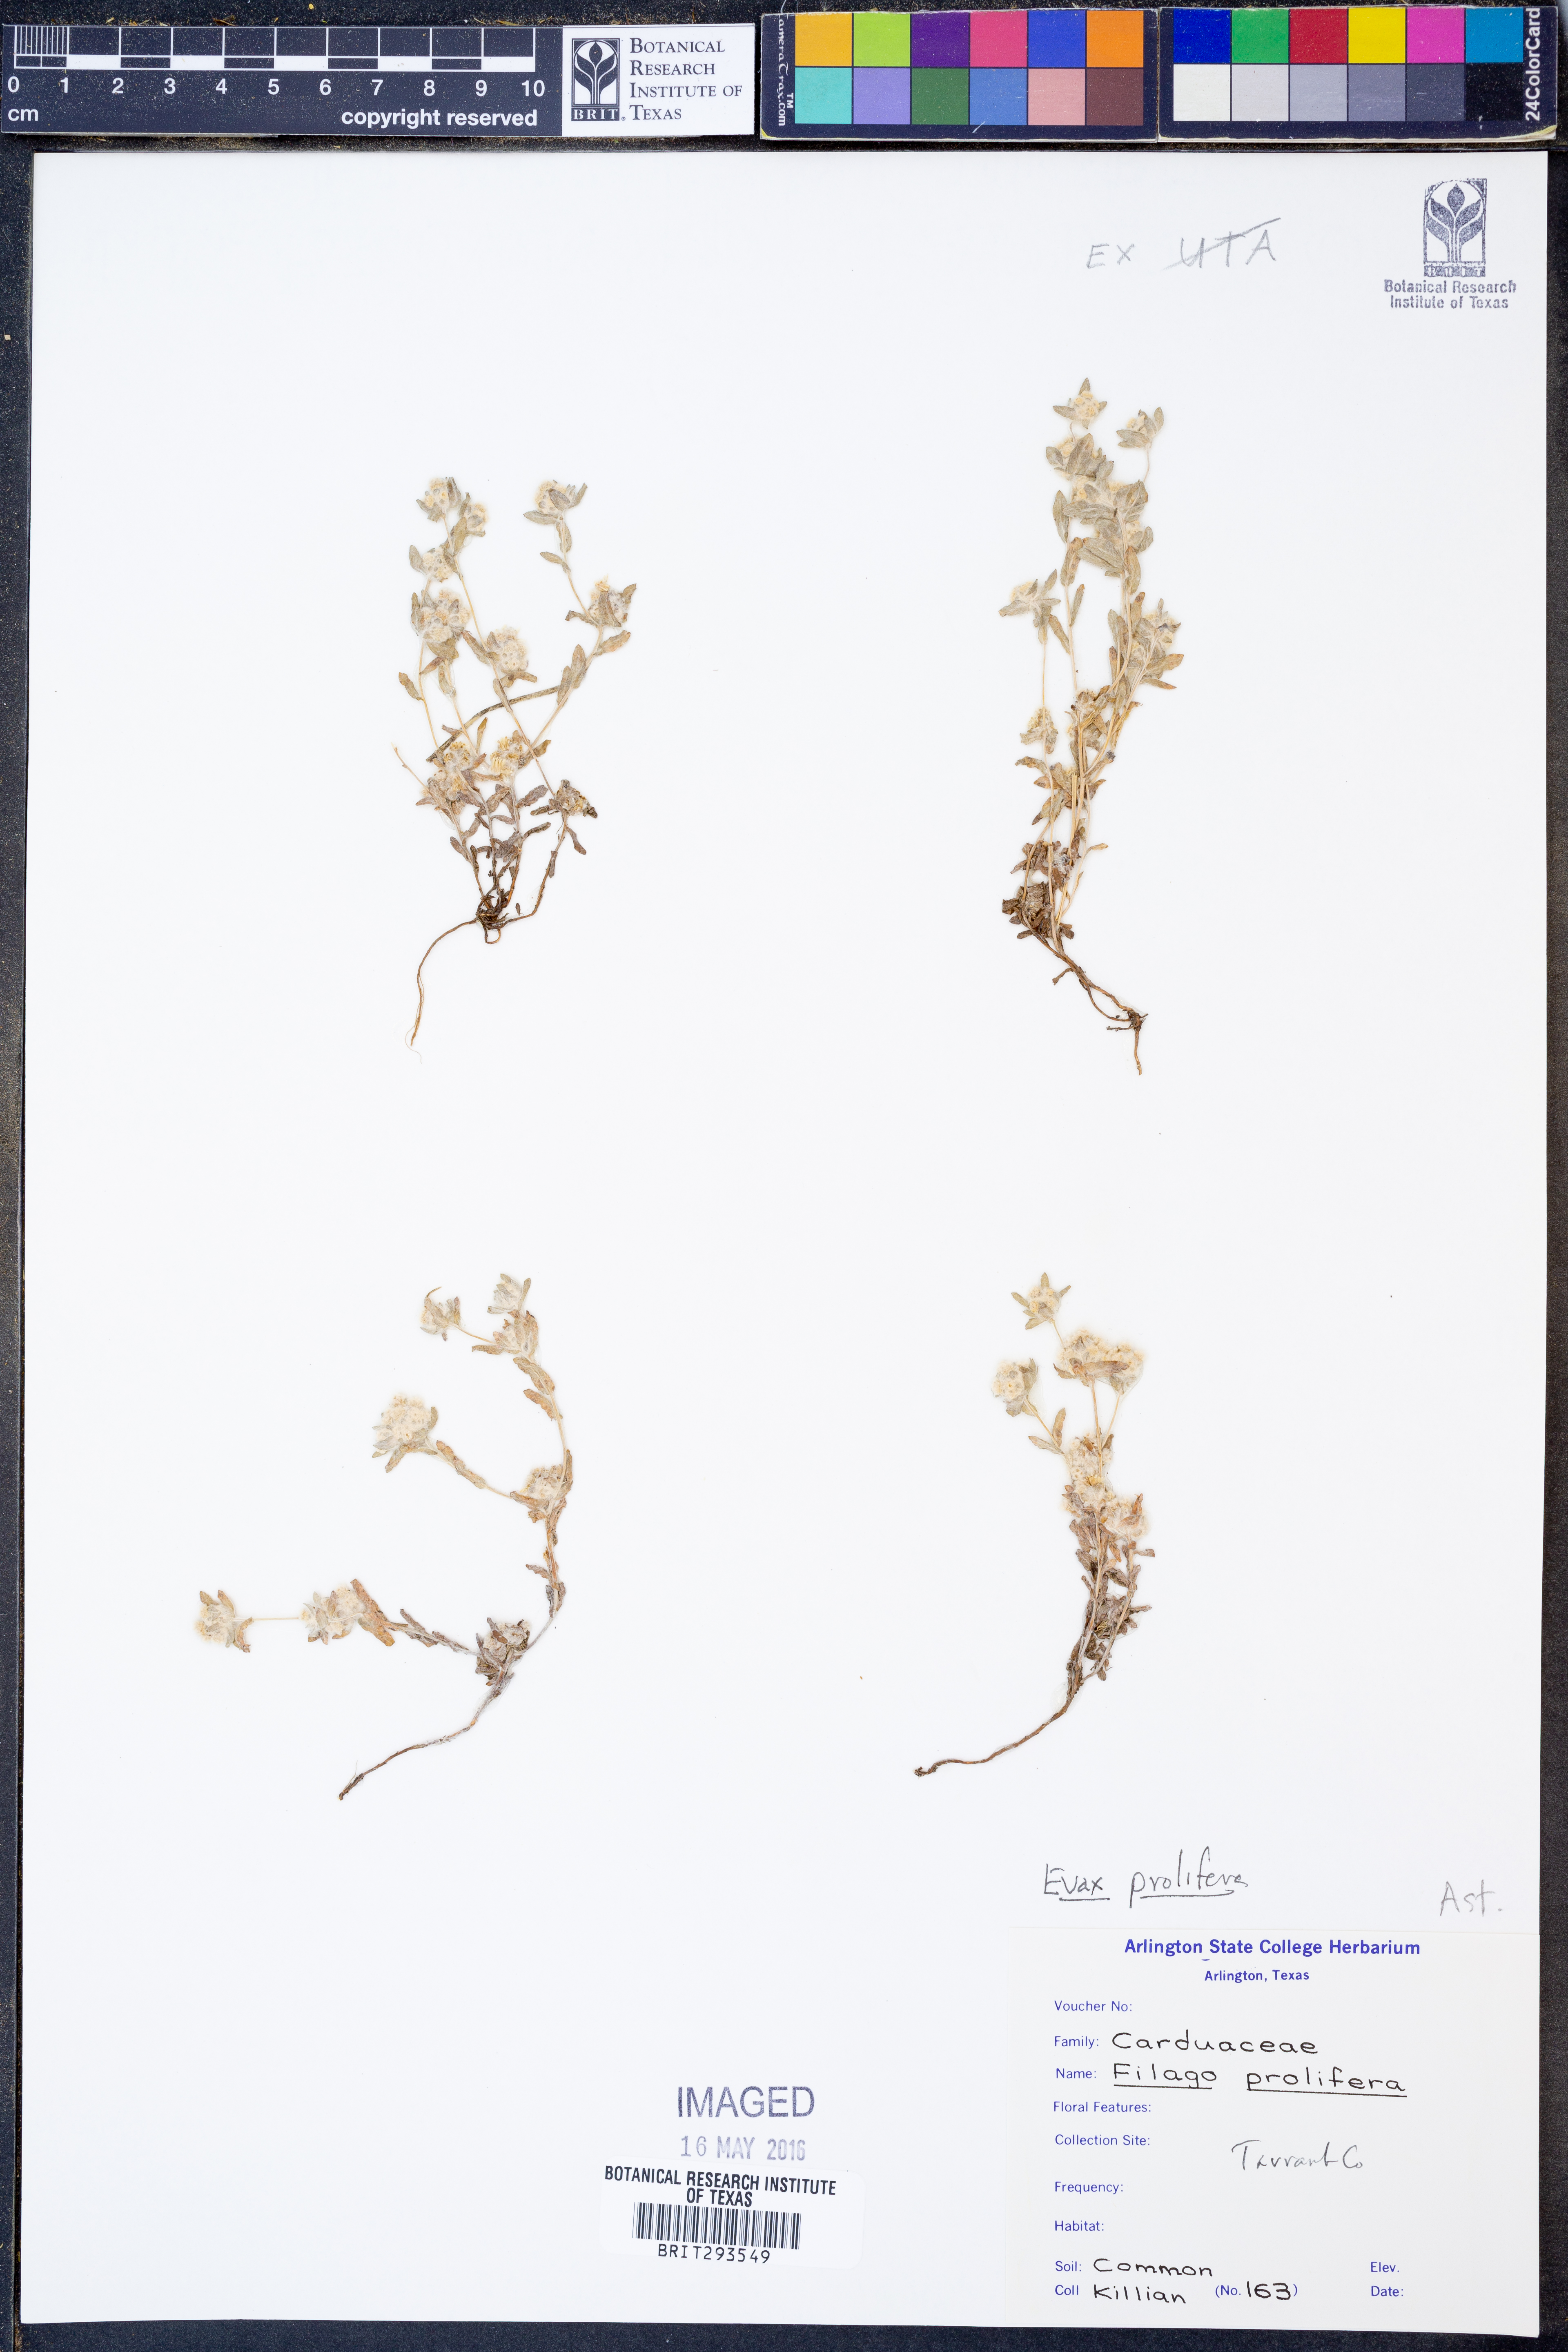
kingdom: Plantae
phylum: Tracheophyta
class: Magnoliopsida
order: Asterales
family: Asteraceae
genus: Filago
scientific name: Filago prolifera
